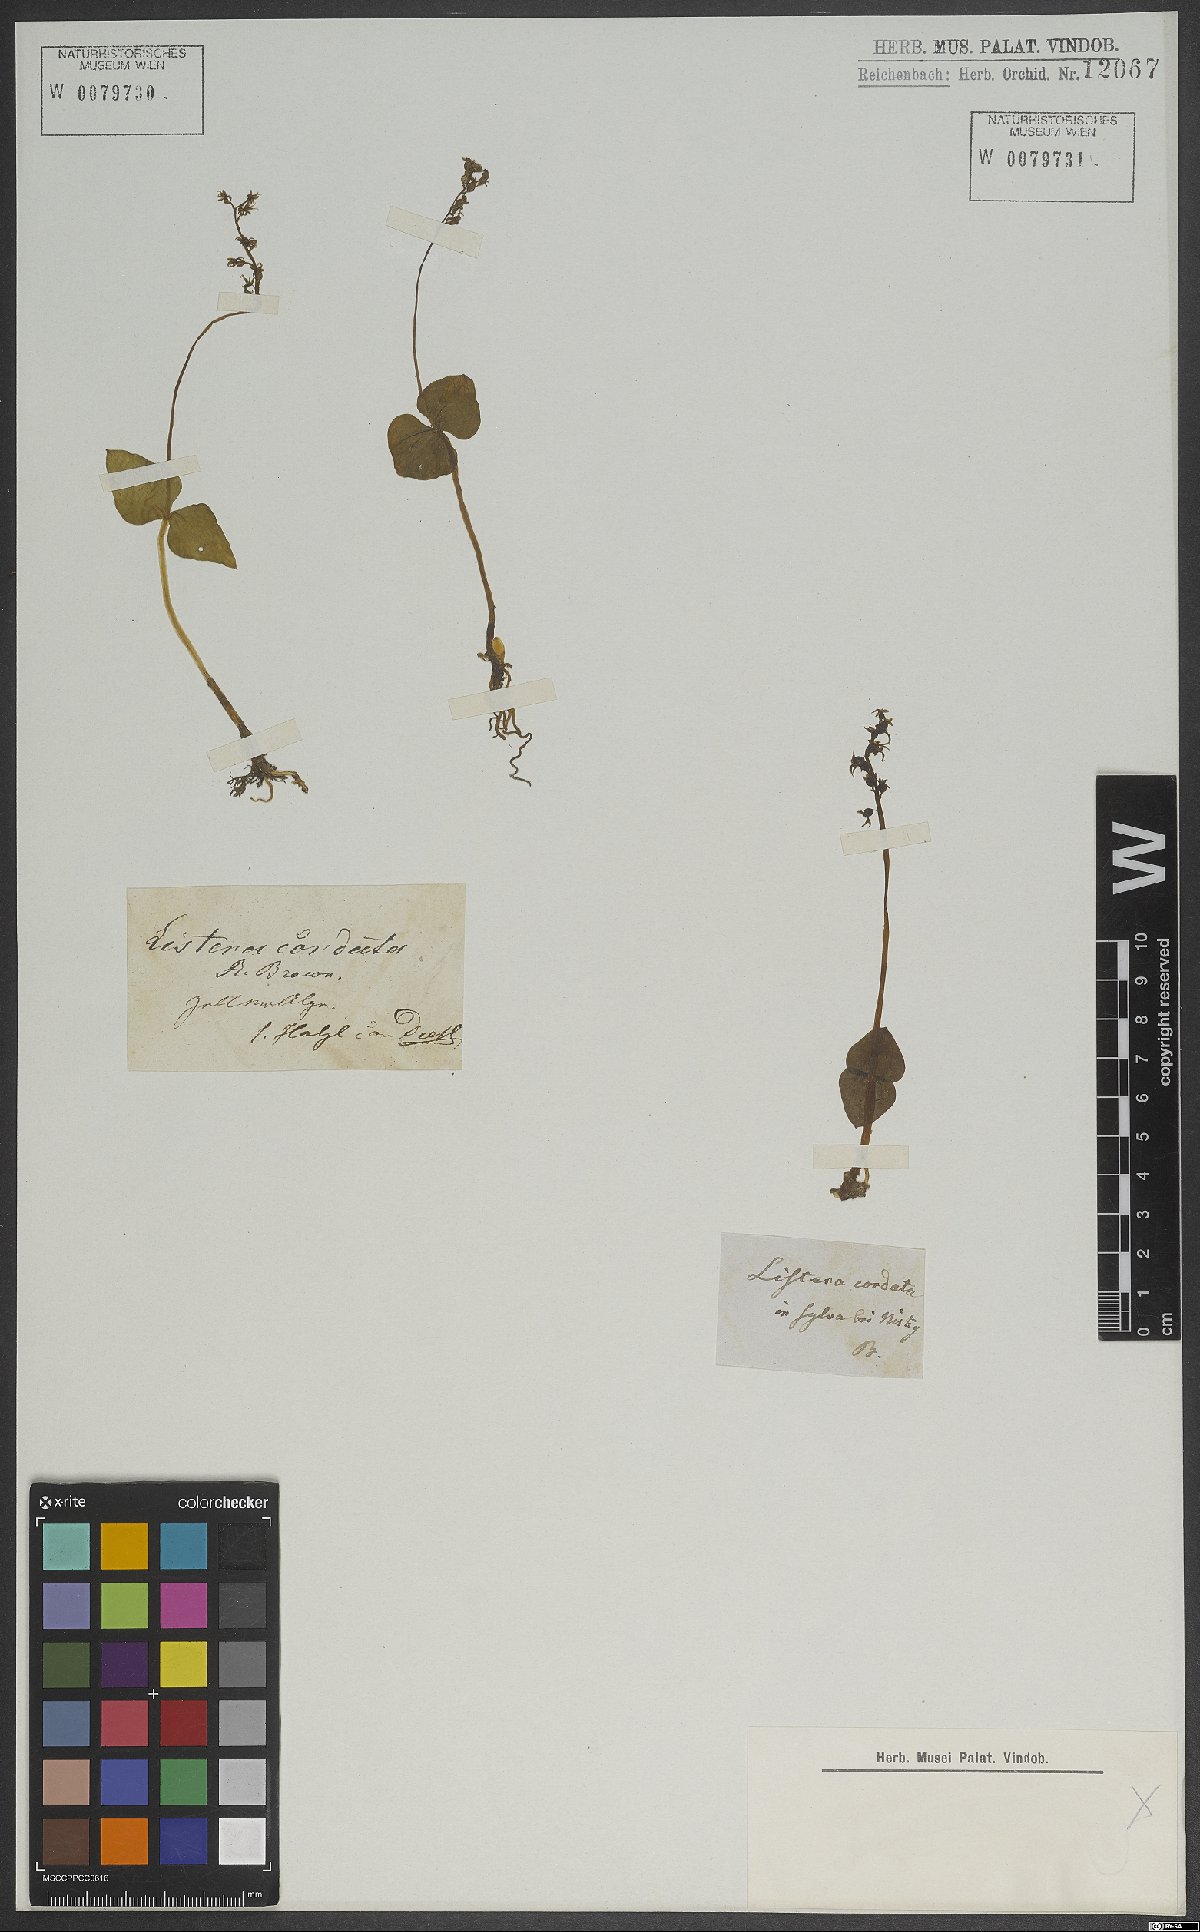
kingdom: Plantae
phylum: Tracheophyta
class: Liliopsida
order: Asparagales
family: Orchidaceae
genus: Neottia
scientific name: Neottia cordata
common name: Lesser twayblade
